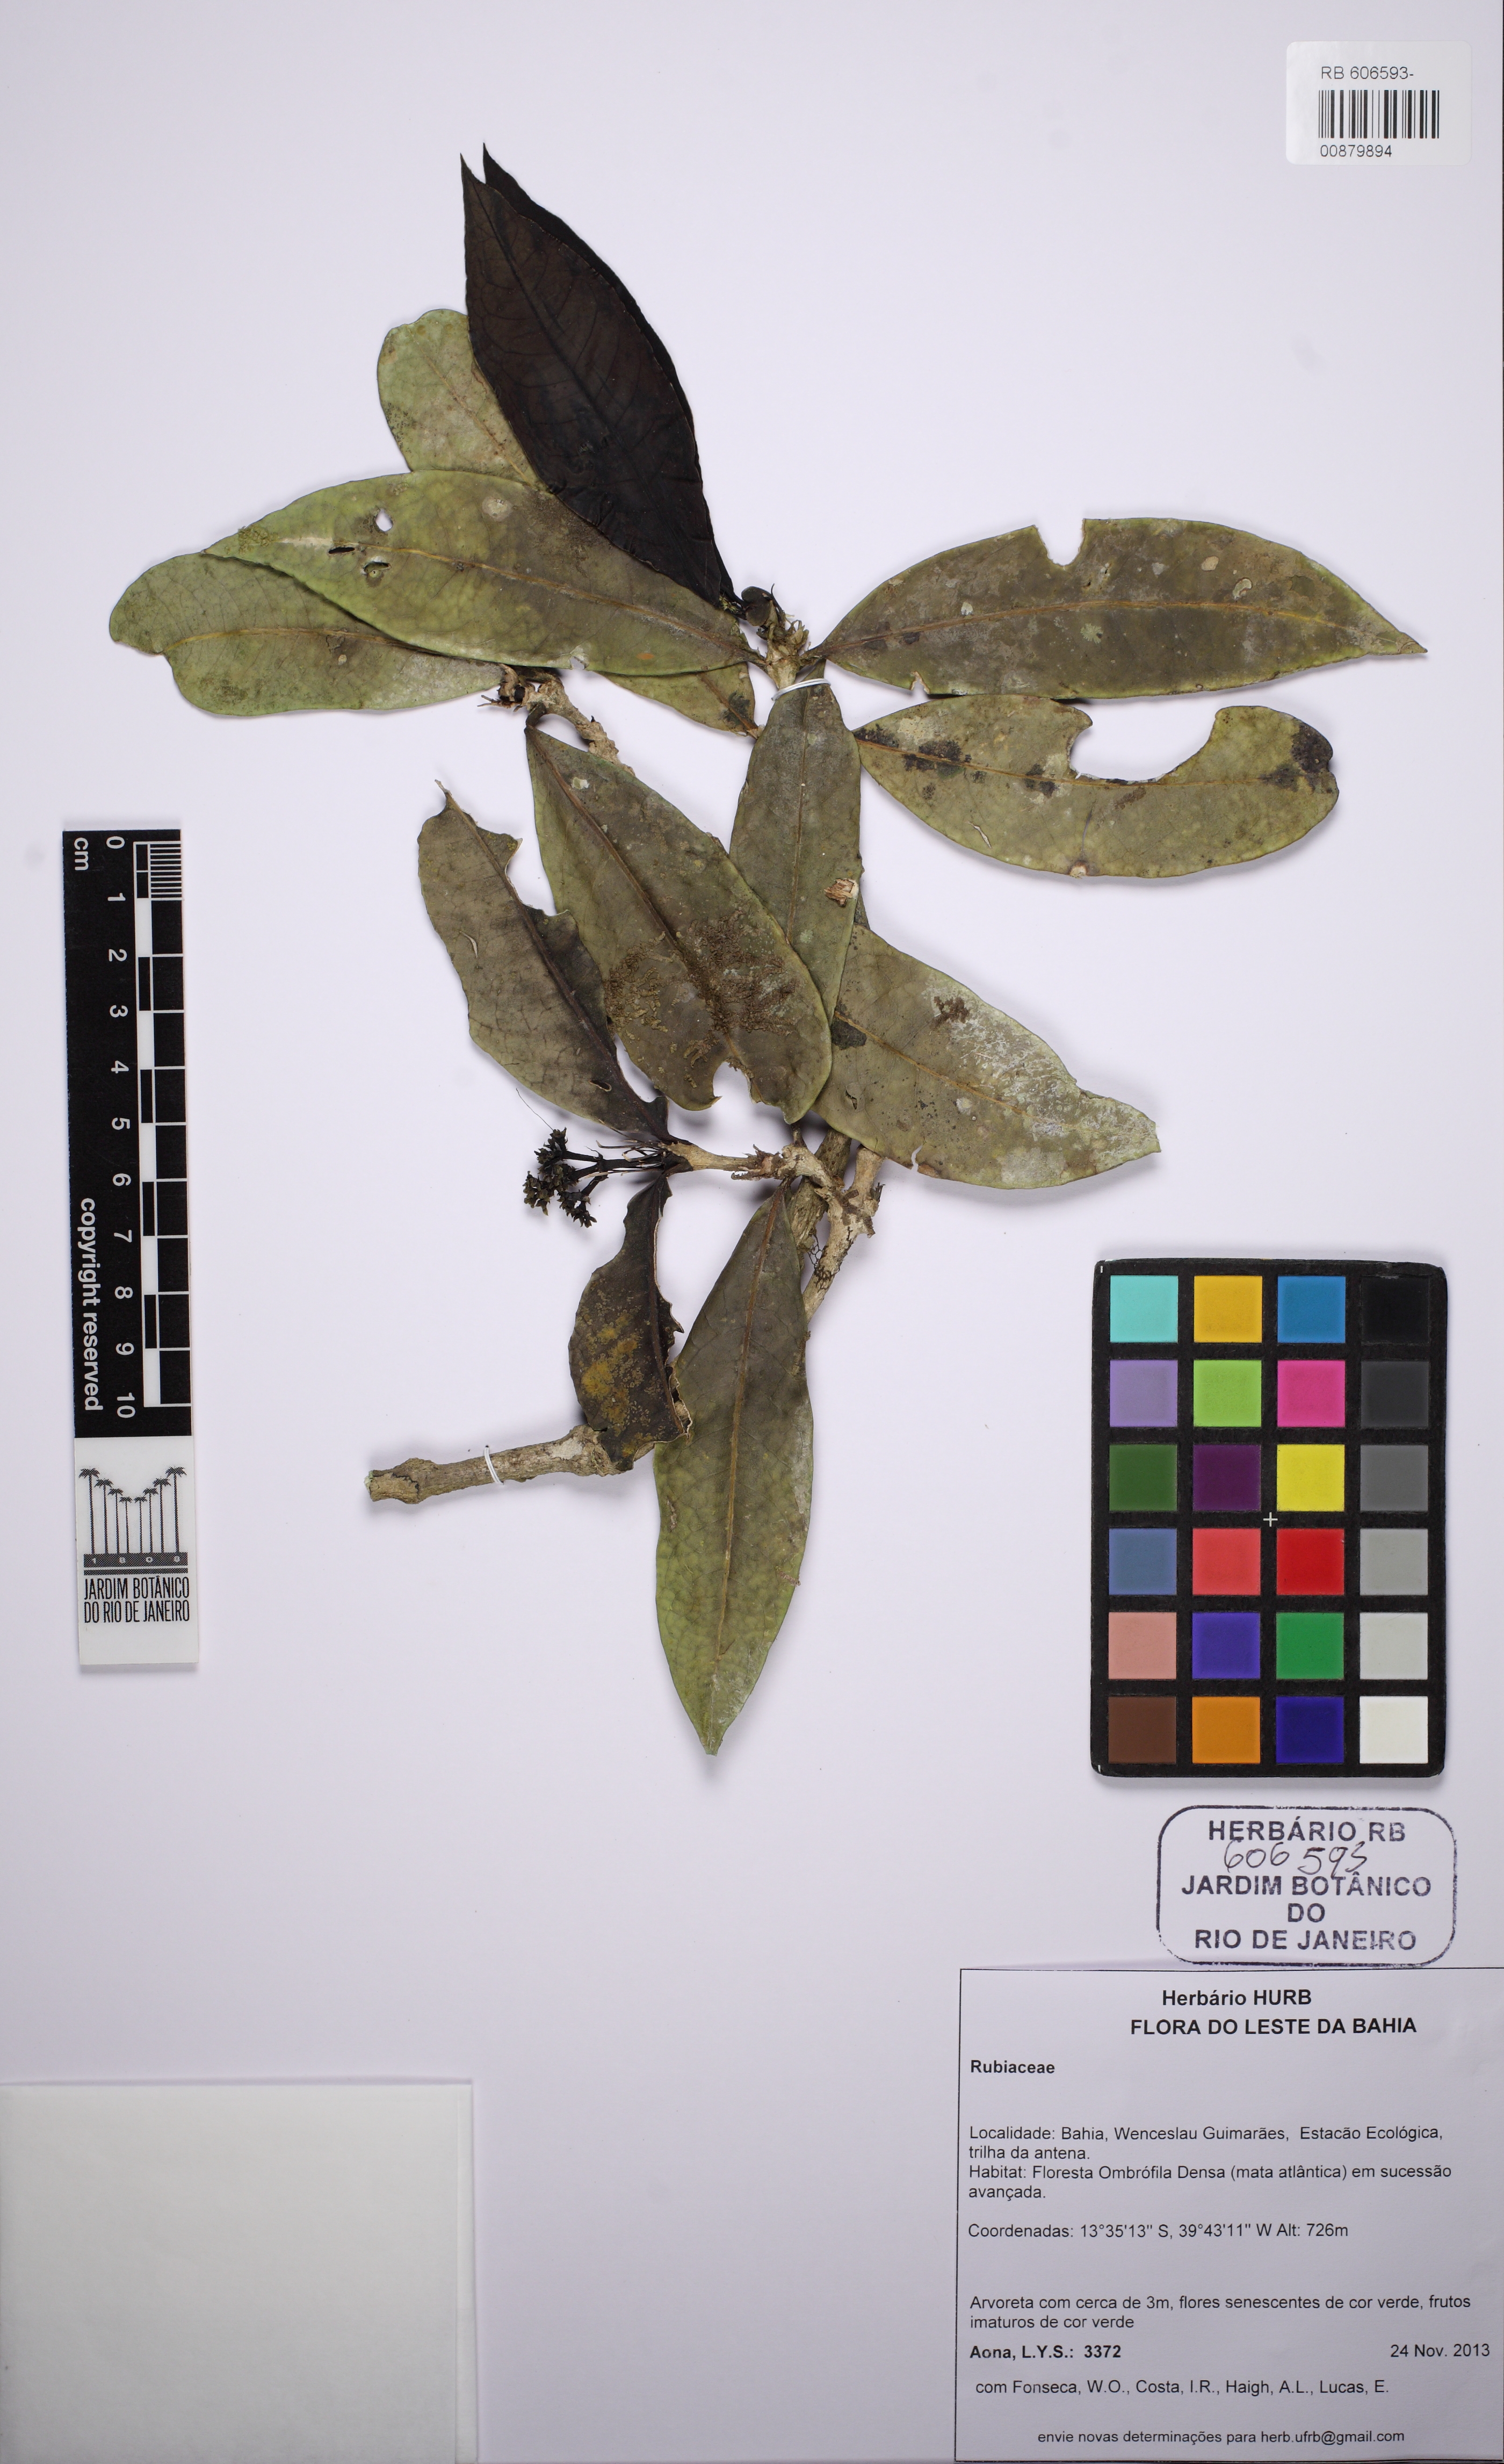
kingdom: Plantae
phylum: Tracheophyta
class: Magnoliopsida
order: Gentianales
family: Rubiaceae
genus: Rudgea
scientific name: Rudgea
